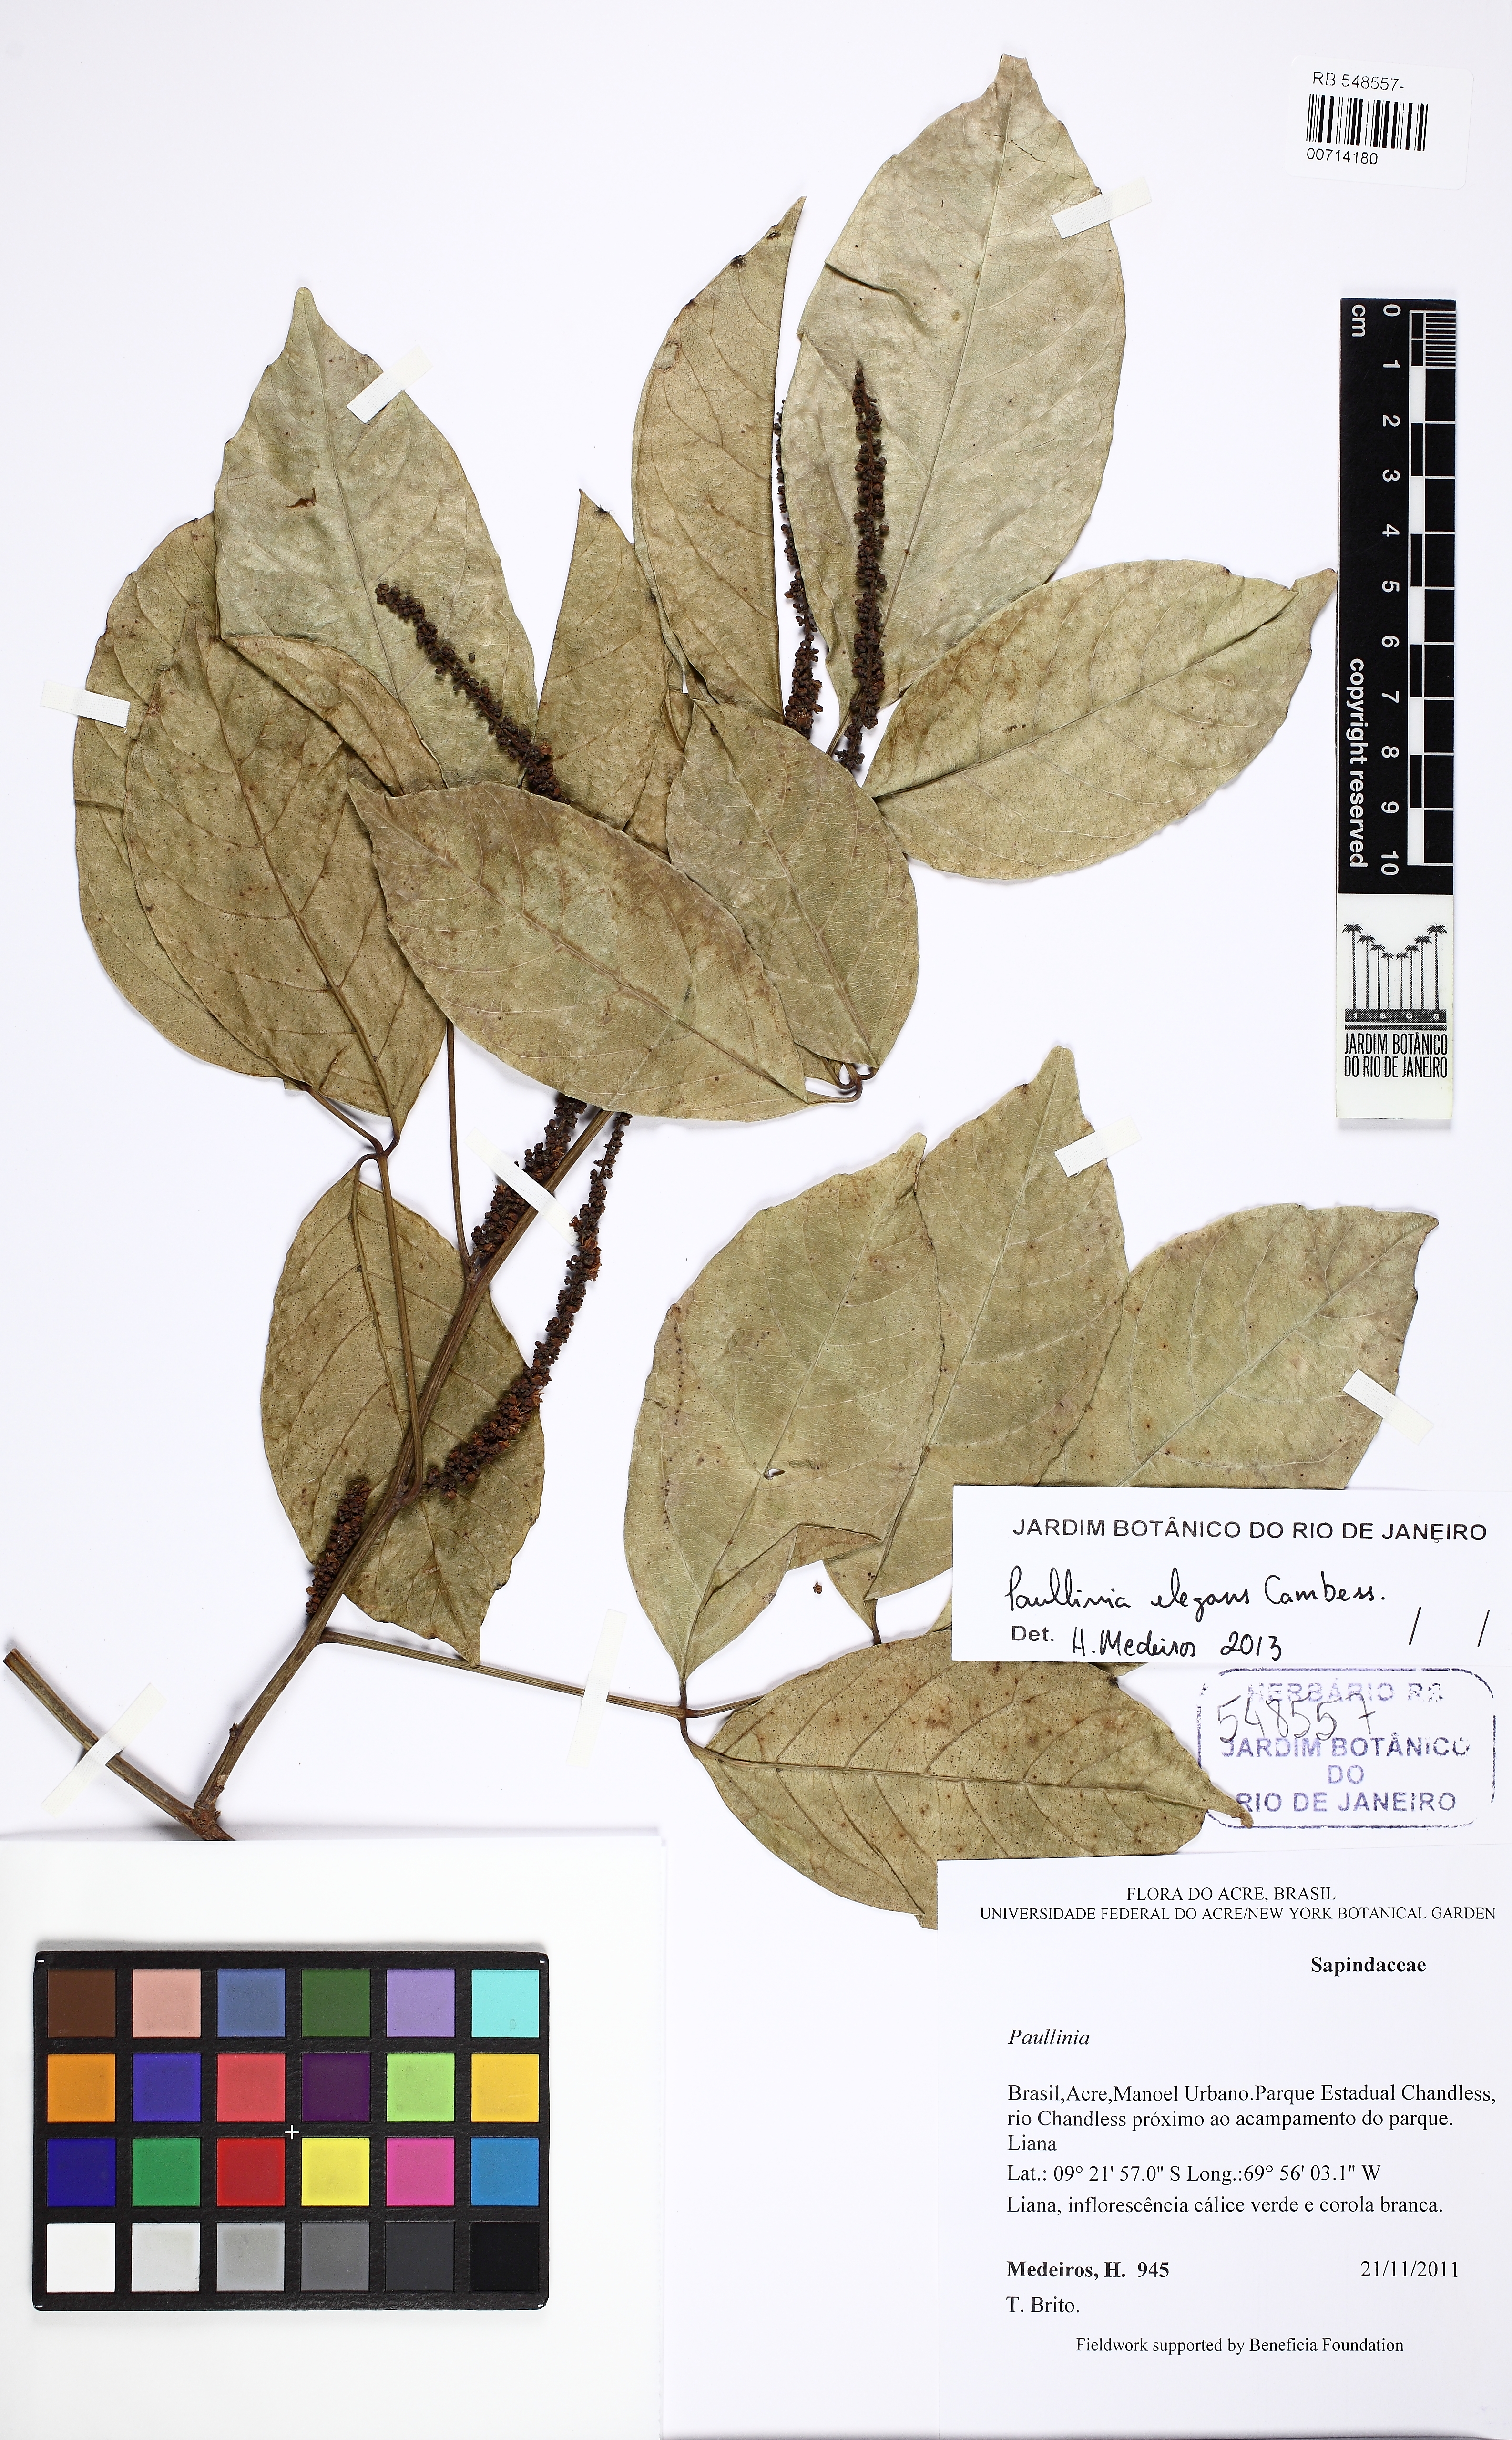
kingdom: Plantae
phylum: Tracheophyta
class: Magnoliopsida
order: Sapindales
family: Sapindaceae
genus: Paullinia
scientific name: Paullinia elegans
